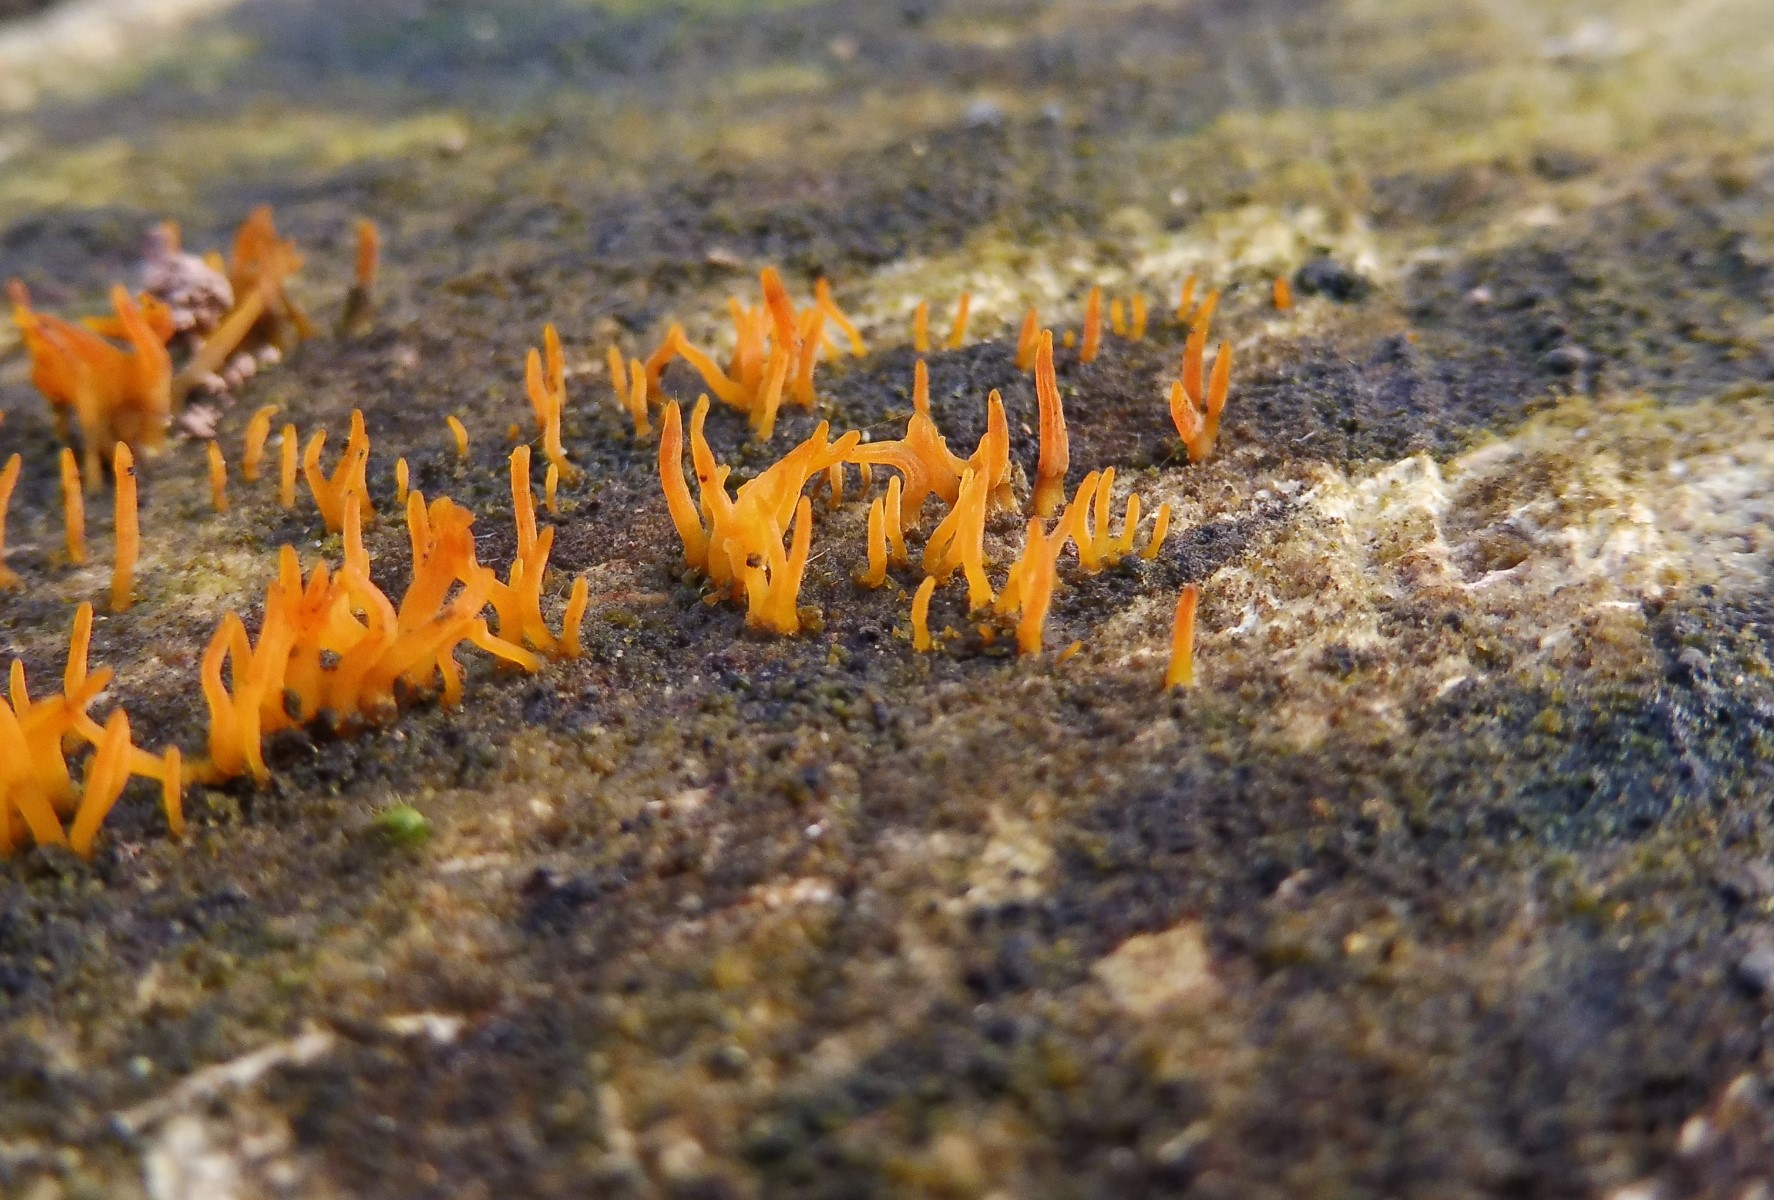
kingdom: Fungi
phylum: Basidiomycota
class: Dacrymycetes
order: Dacrymycetales
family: Dacrymycetaceae
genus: Calocera
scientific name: Calocera cornea
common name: liden guldgaffel
